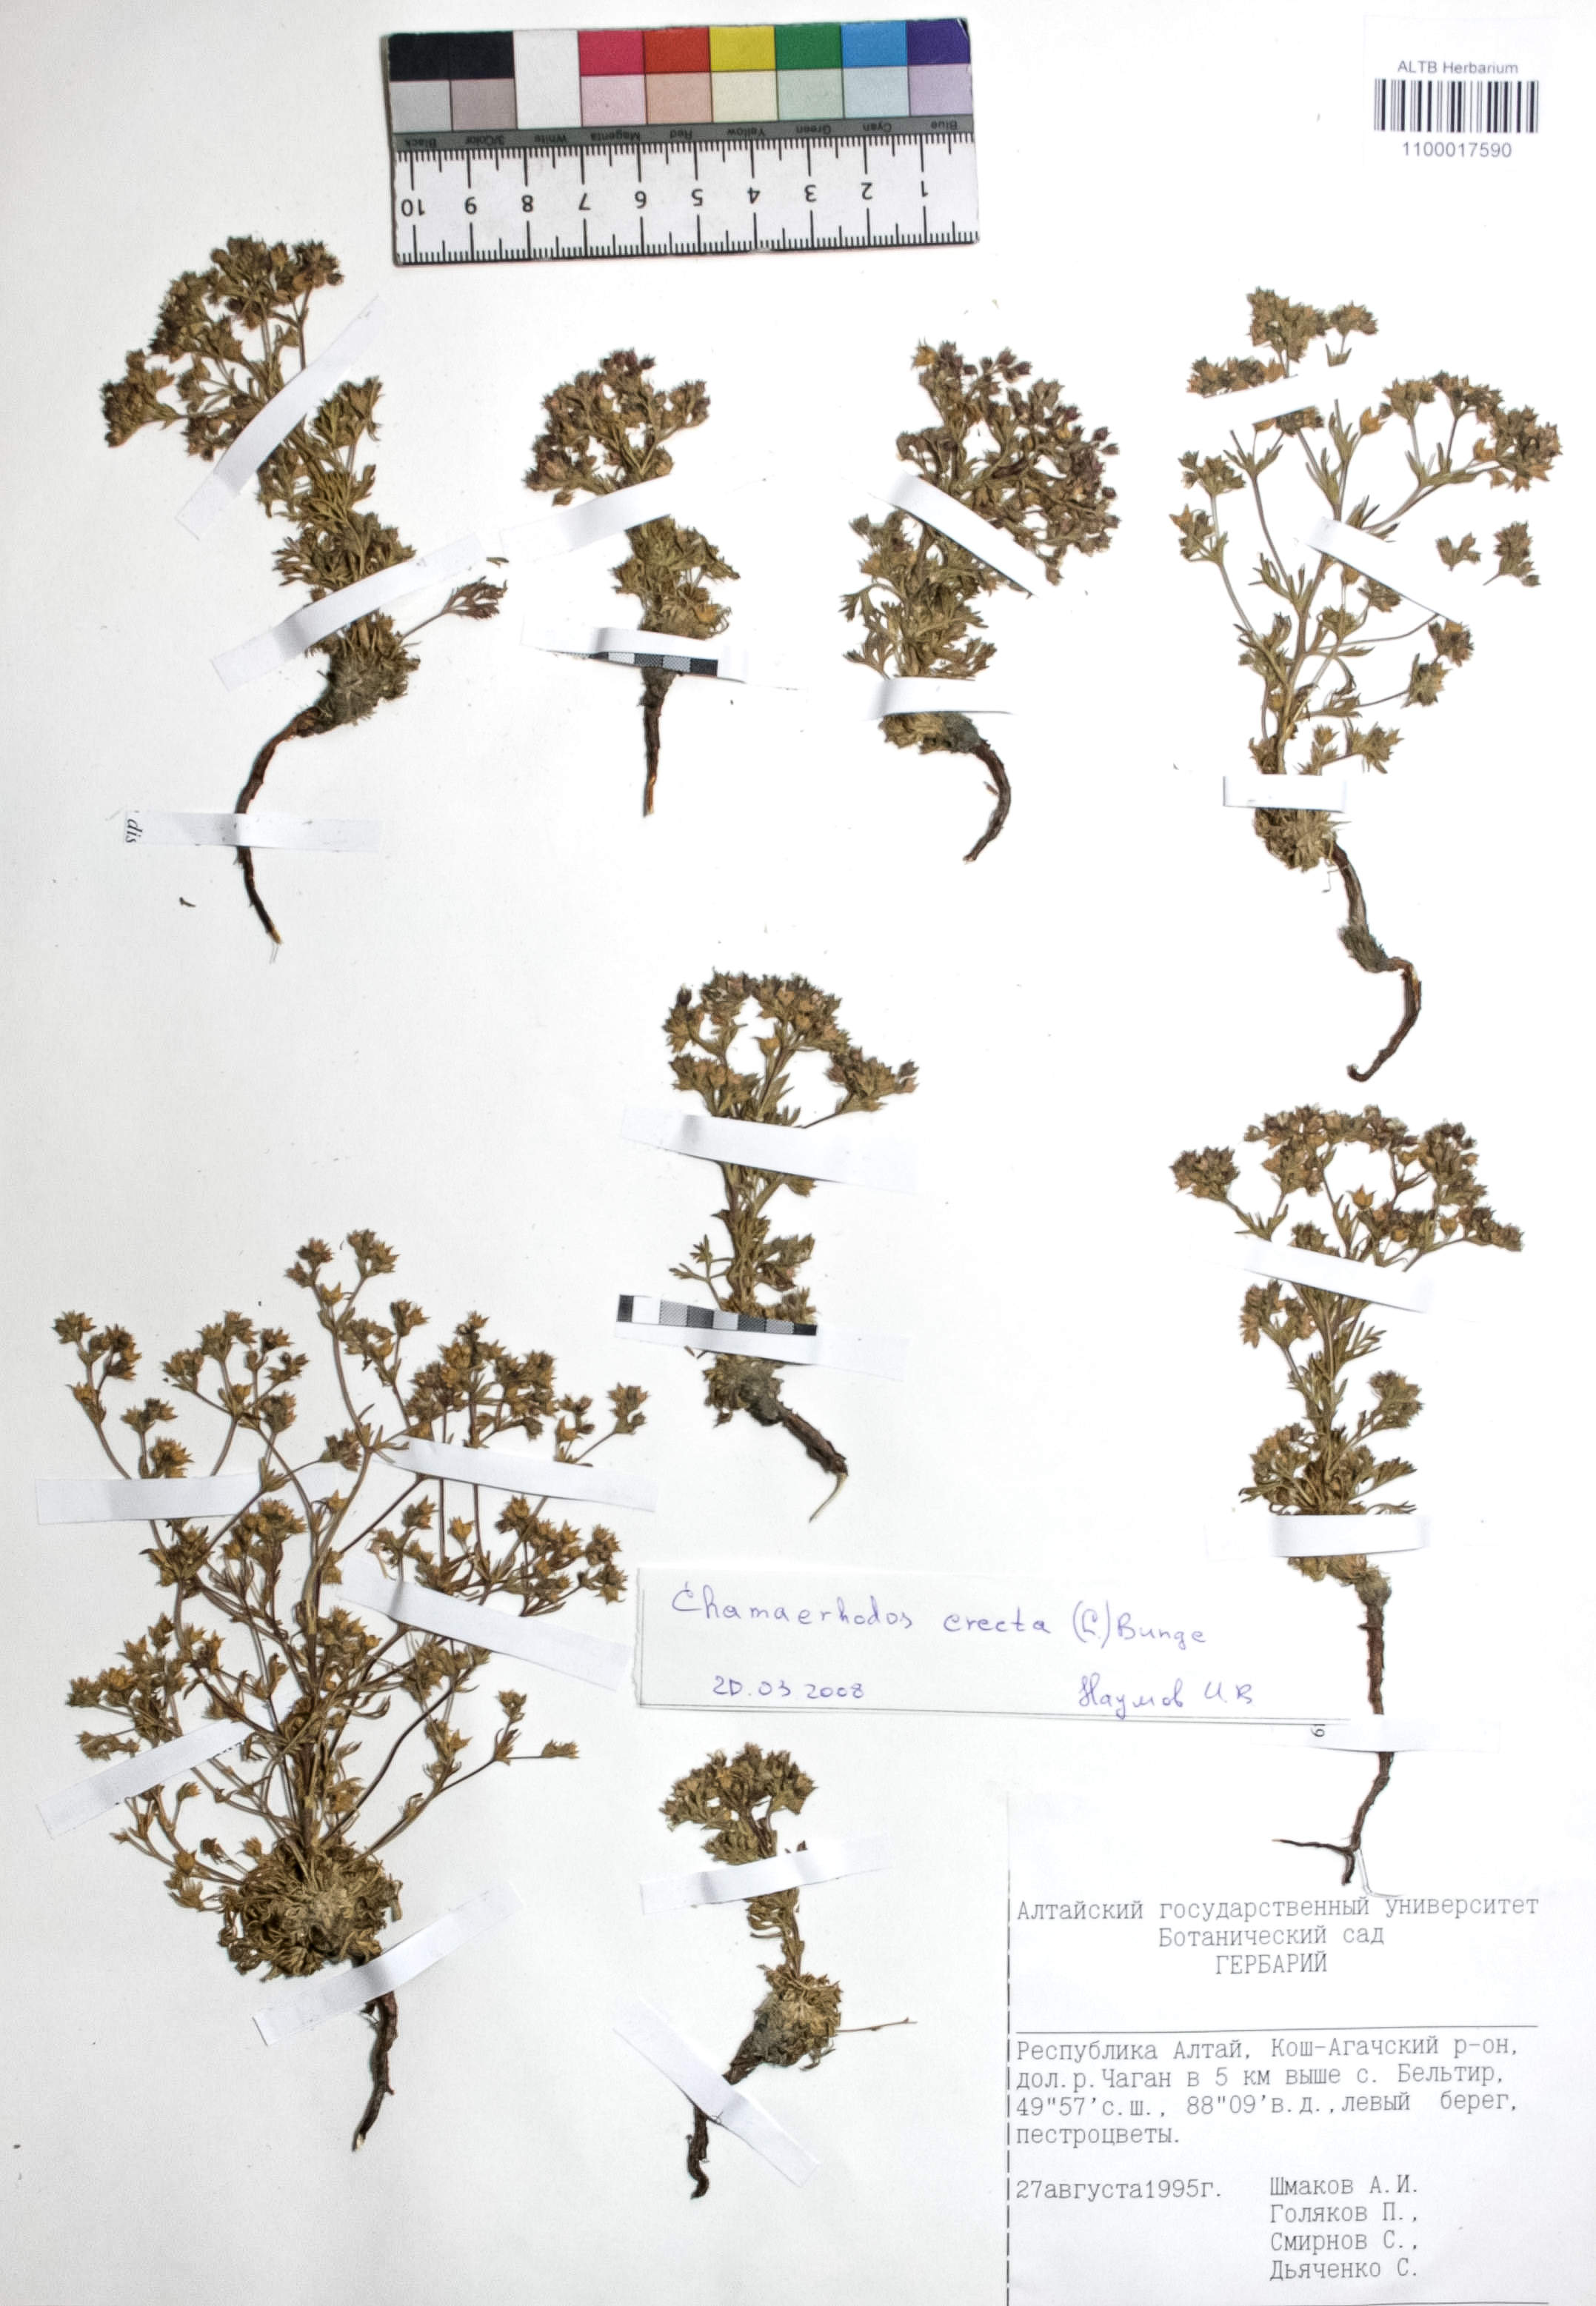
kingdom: Plantae
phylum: Tracheophyta
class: Magnoliopsida
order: Rosales
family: Rosaceae
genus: Chamaerhodos
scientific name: Chamaerhodos erecta
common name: American chamaerhodos
